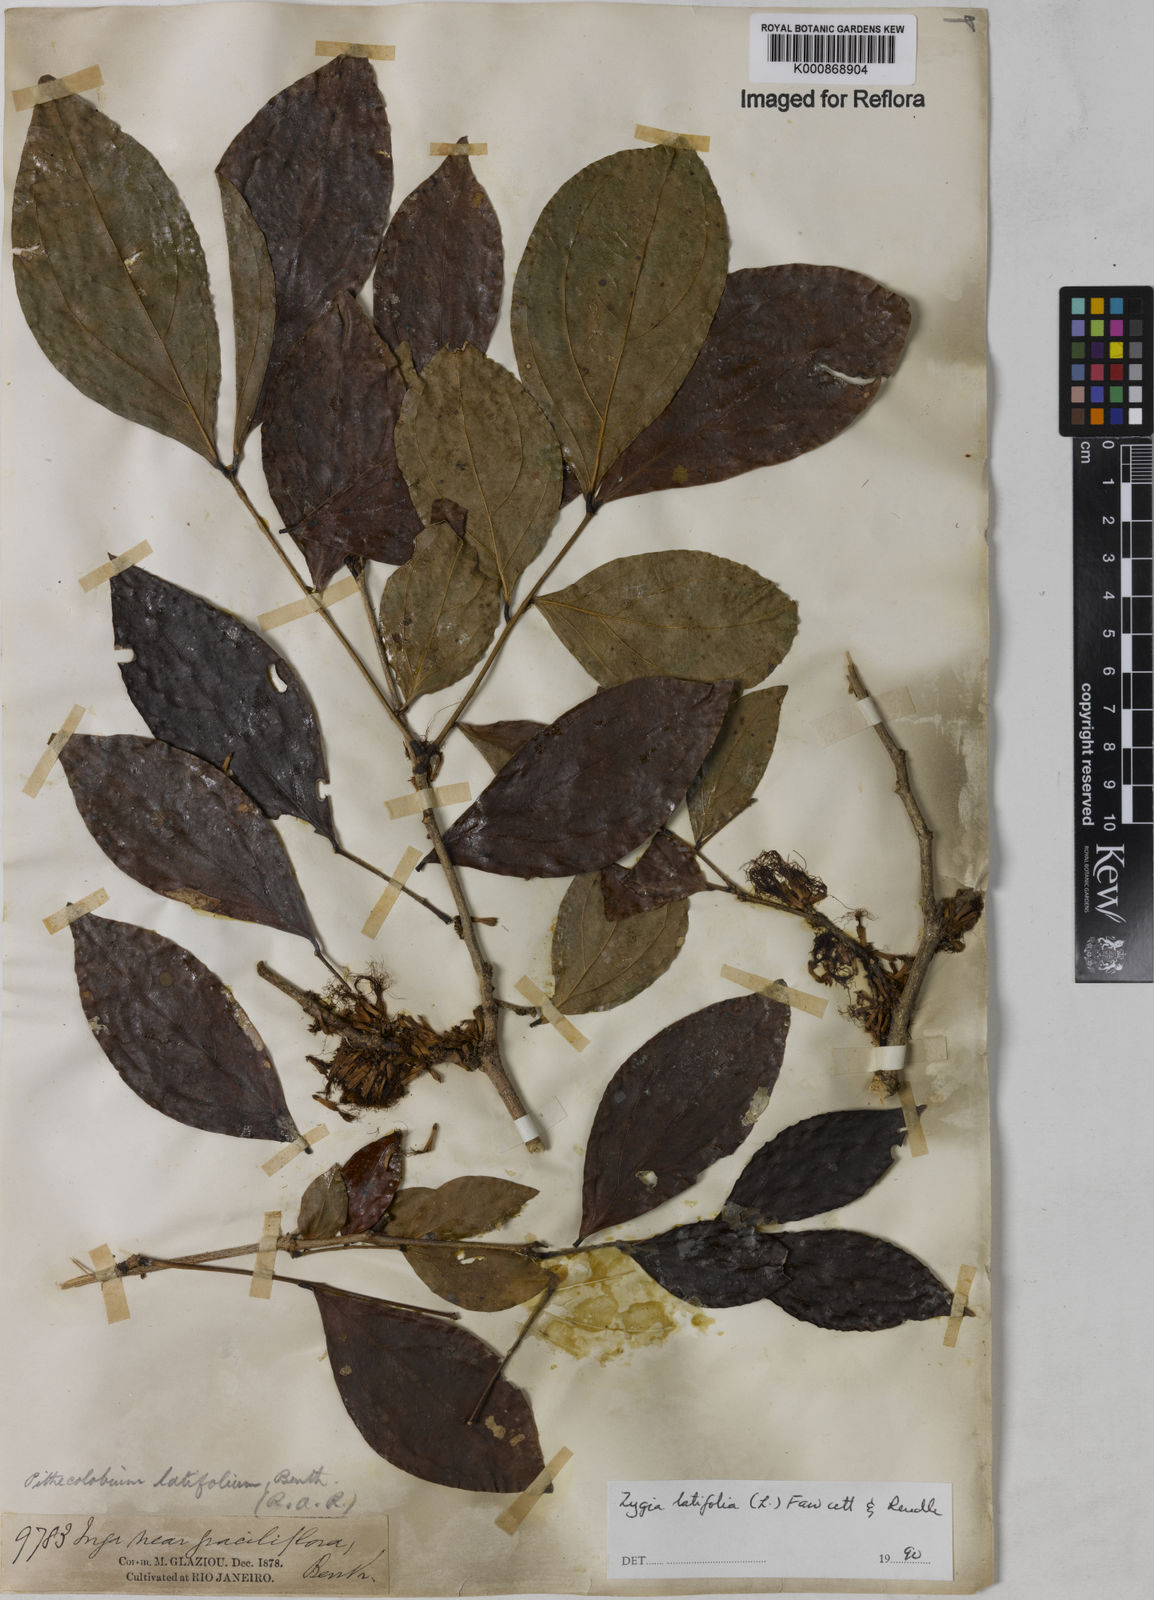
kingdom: Plantae
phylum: Tracheophyta
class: Magnoliopsida
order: Fabales
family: Fabaceae
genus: Zygia
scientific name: Zygia latifolia
